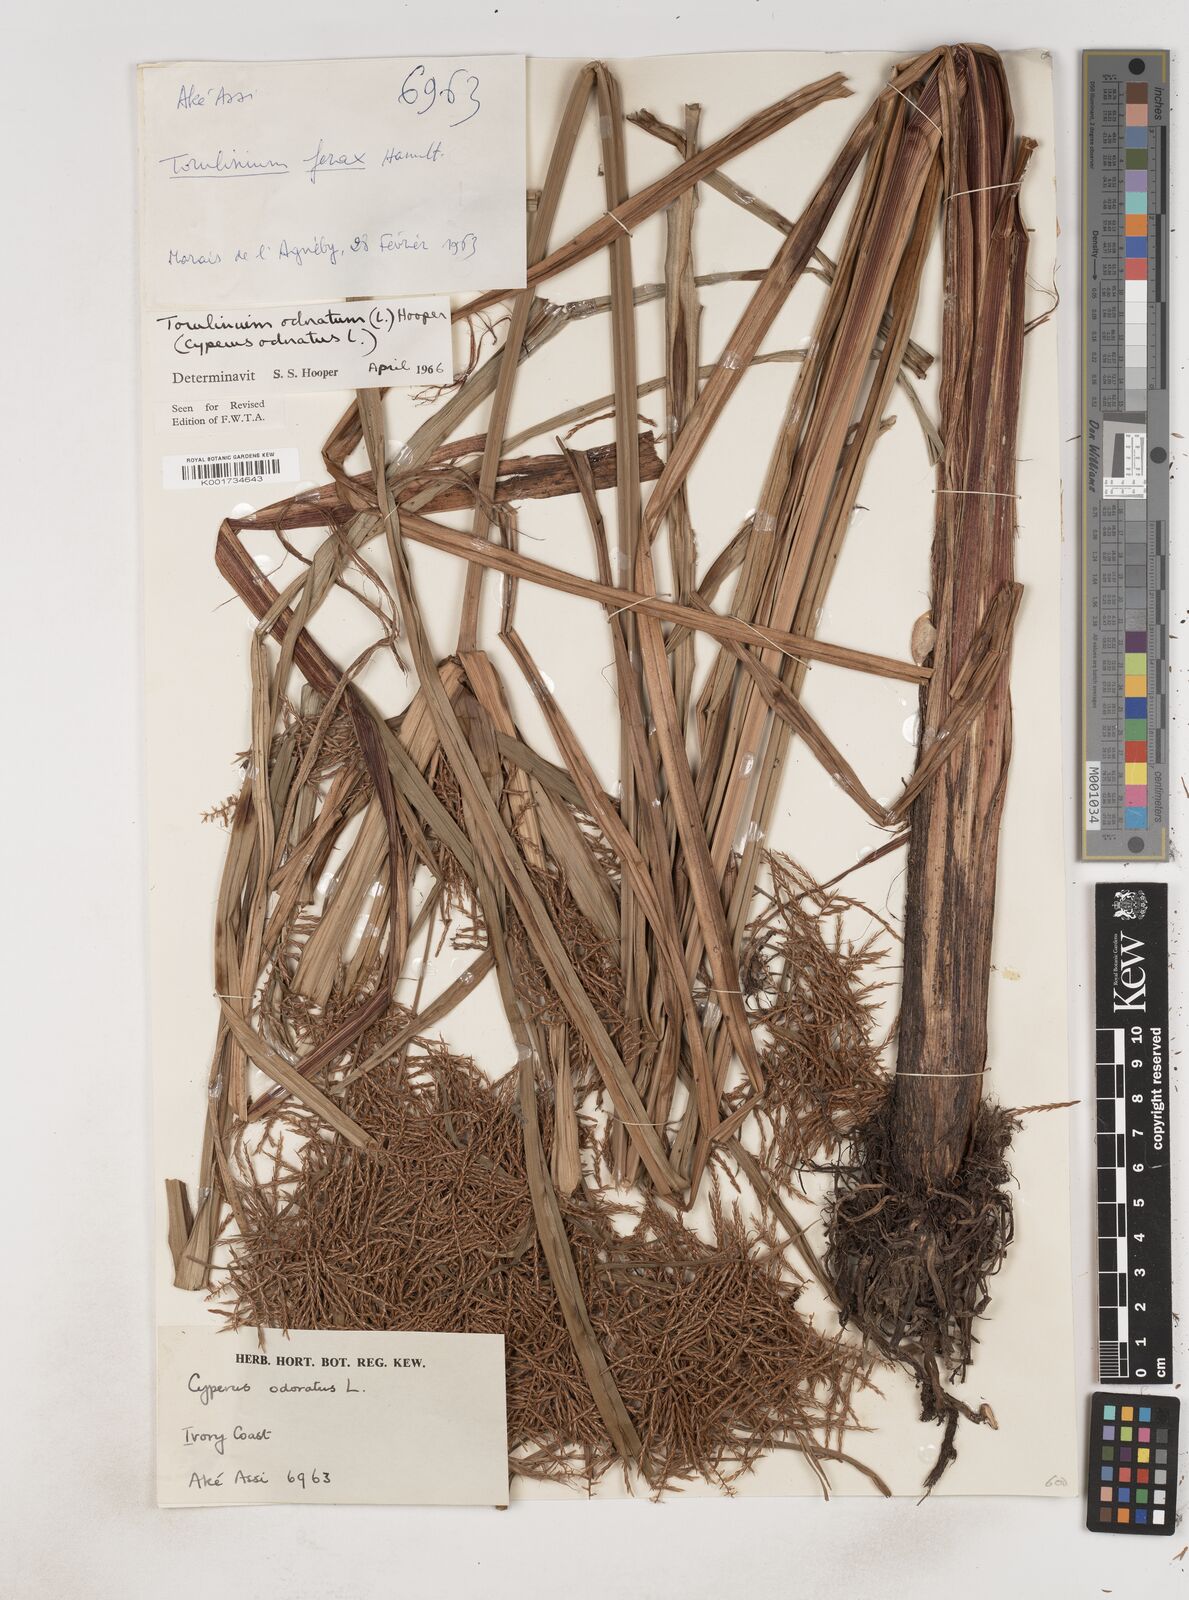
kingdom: Plantae
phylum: Tracheophyta
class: Liliopsida
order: Poales
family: Cyperaceae
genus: Cyperus
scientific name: Cyperus odoratus
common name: Fragrant flatsedge
